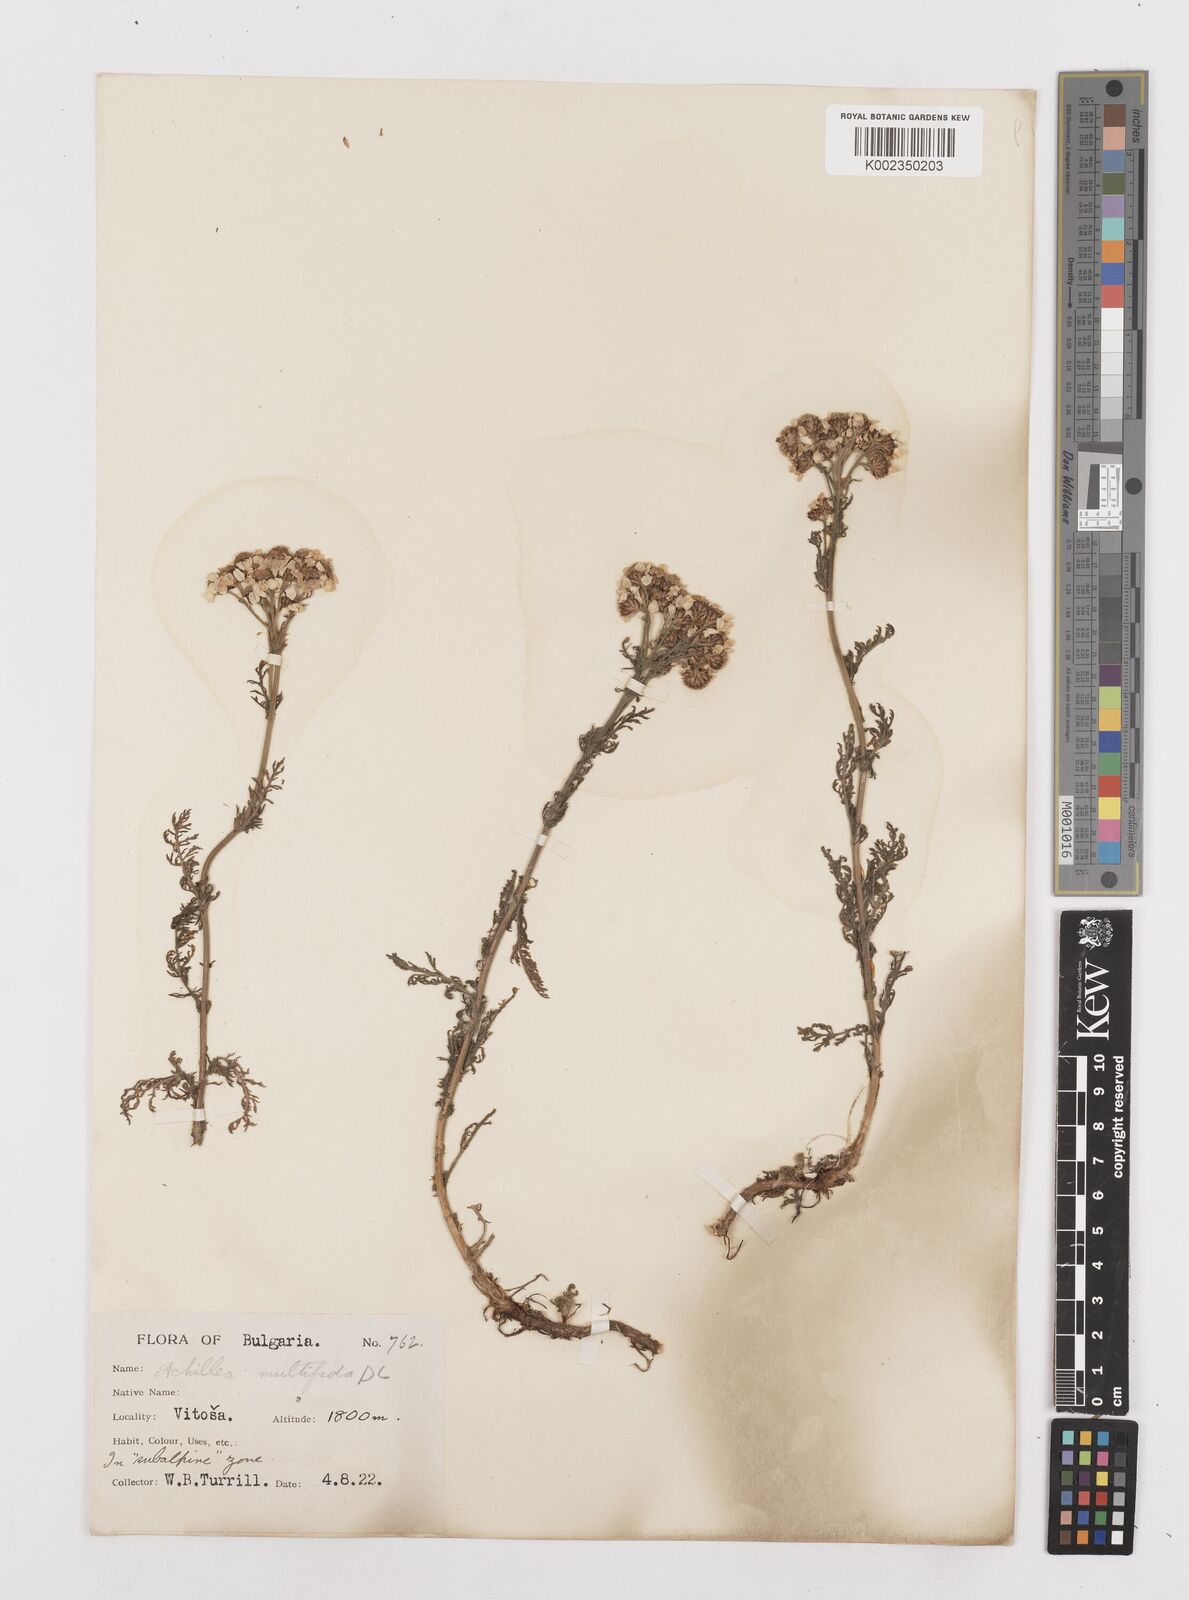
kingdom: Plantae
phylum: Tracheophyta
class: Magnoliopsida
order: Asterales
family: Asteraceae
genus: Achillea
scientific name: Achillea multifida
